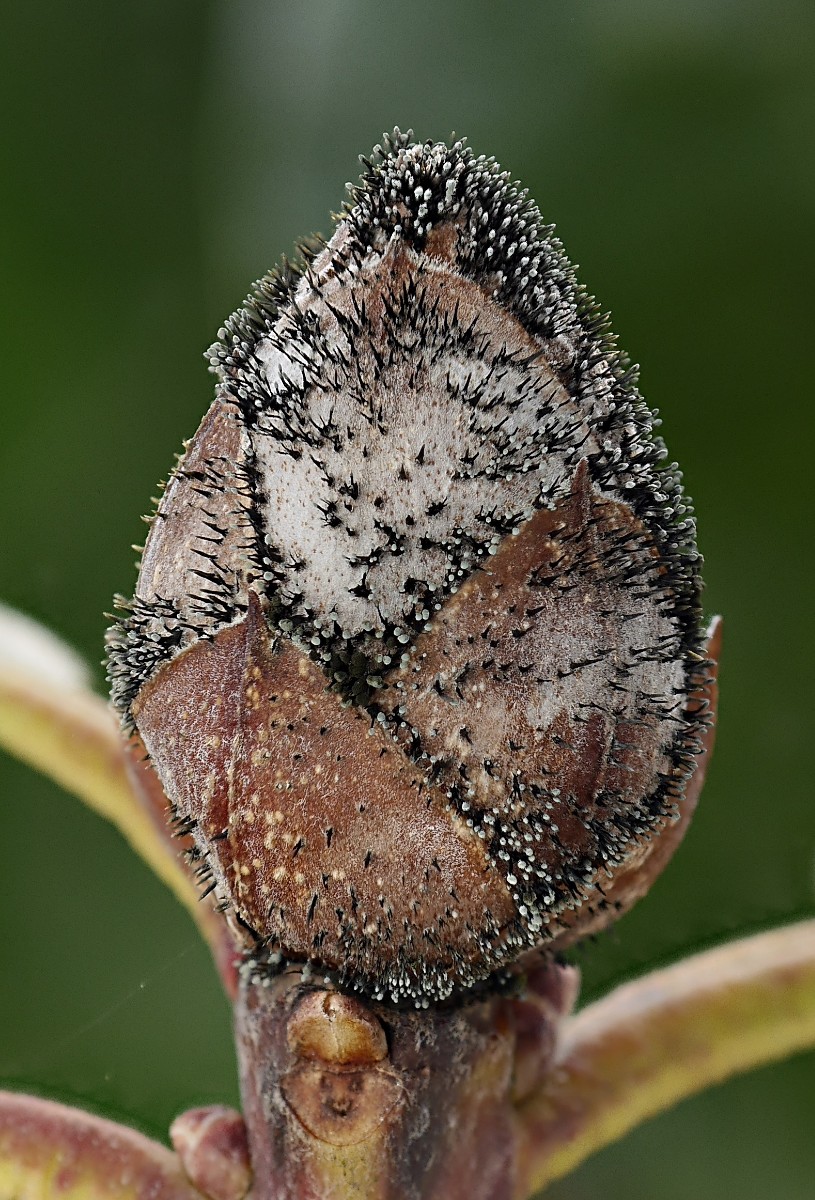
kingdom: Fungi
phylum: Ascomycota
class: Dothideomycetes
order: Pleosporales
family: Melanommataceae
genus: Seifertia
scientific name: Seifertia azaleae
